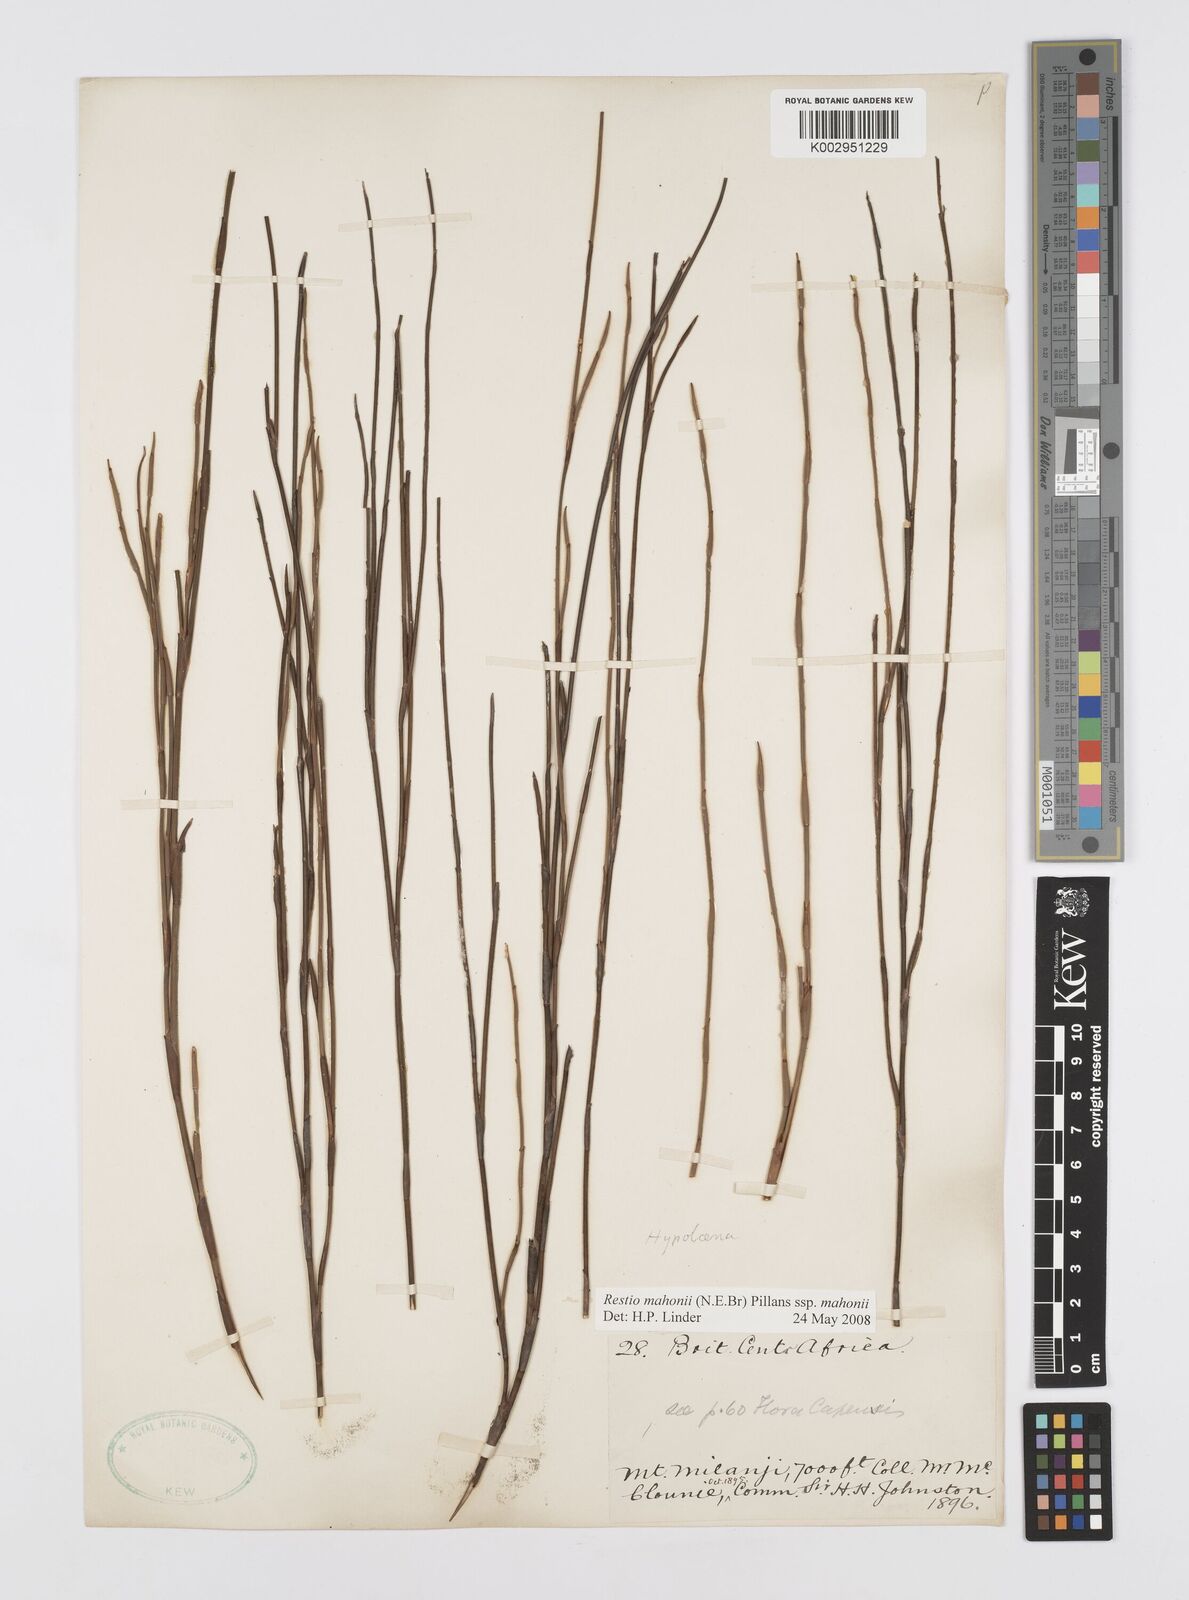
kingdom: Plantae
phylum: Tracheophyta
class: Liliopsida
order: Poales
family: Restionaceae
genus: Platycaulos
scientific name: Platycaulos mahonii
